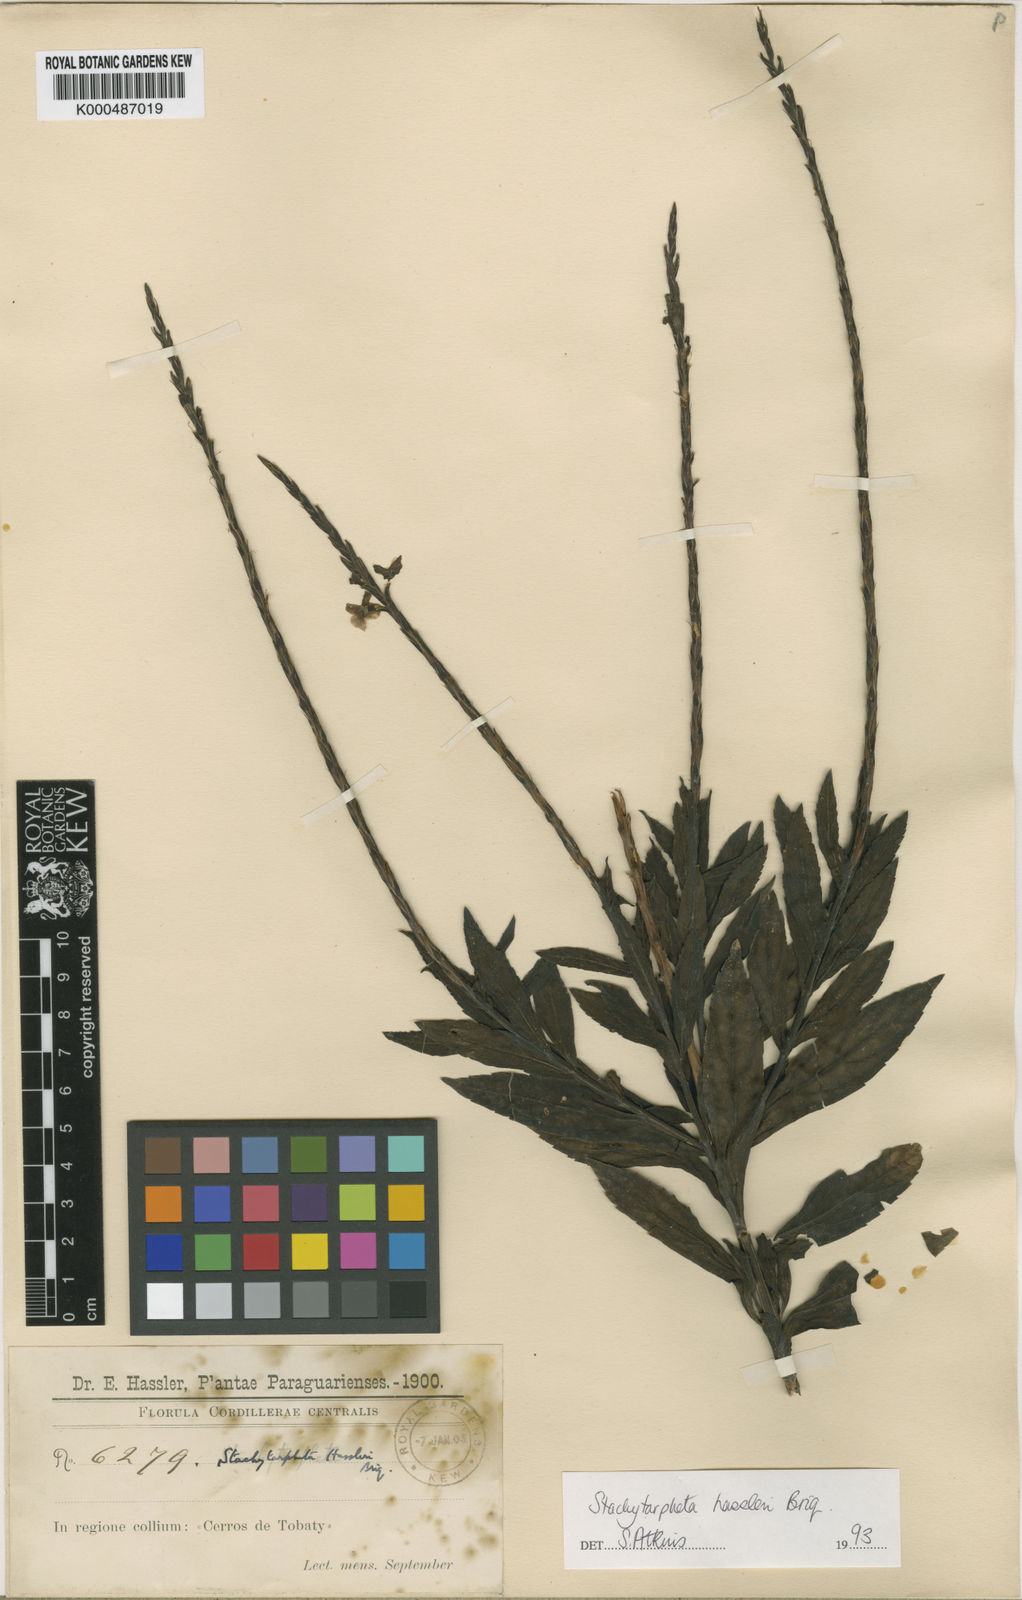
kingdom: Plantae
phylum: Tracheophyta
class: Magnoliopsida
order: Lamiales
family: Verbenaceae
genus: Stachytarpheta
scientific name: Stachytarpheta hassleri
